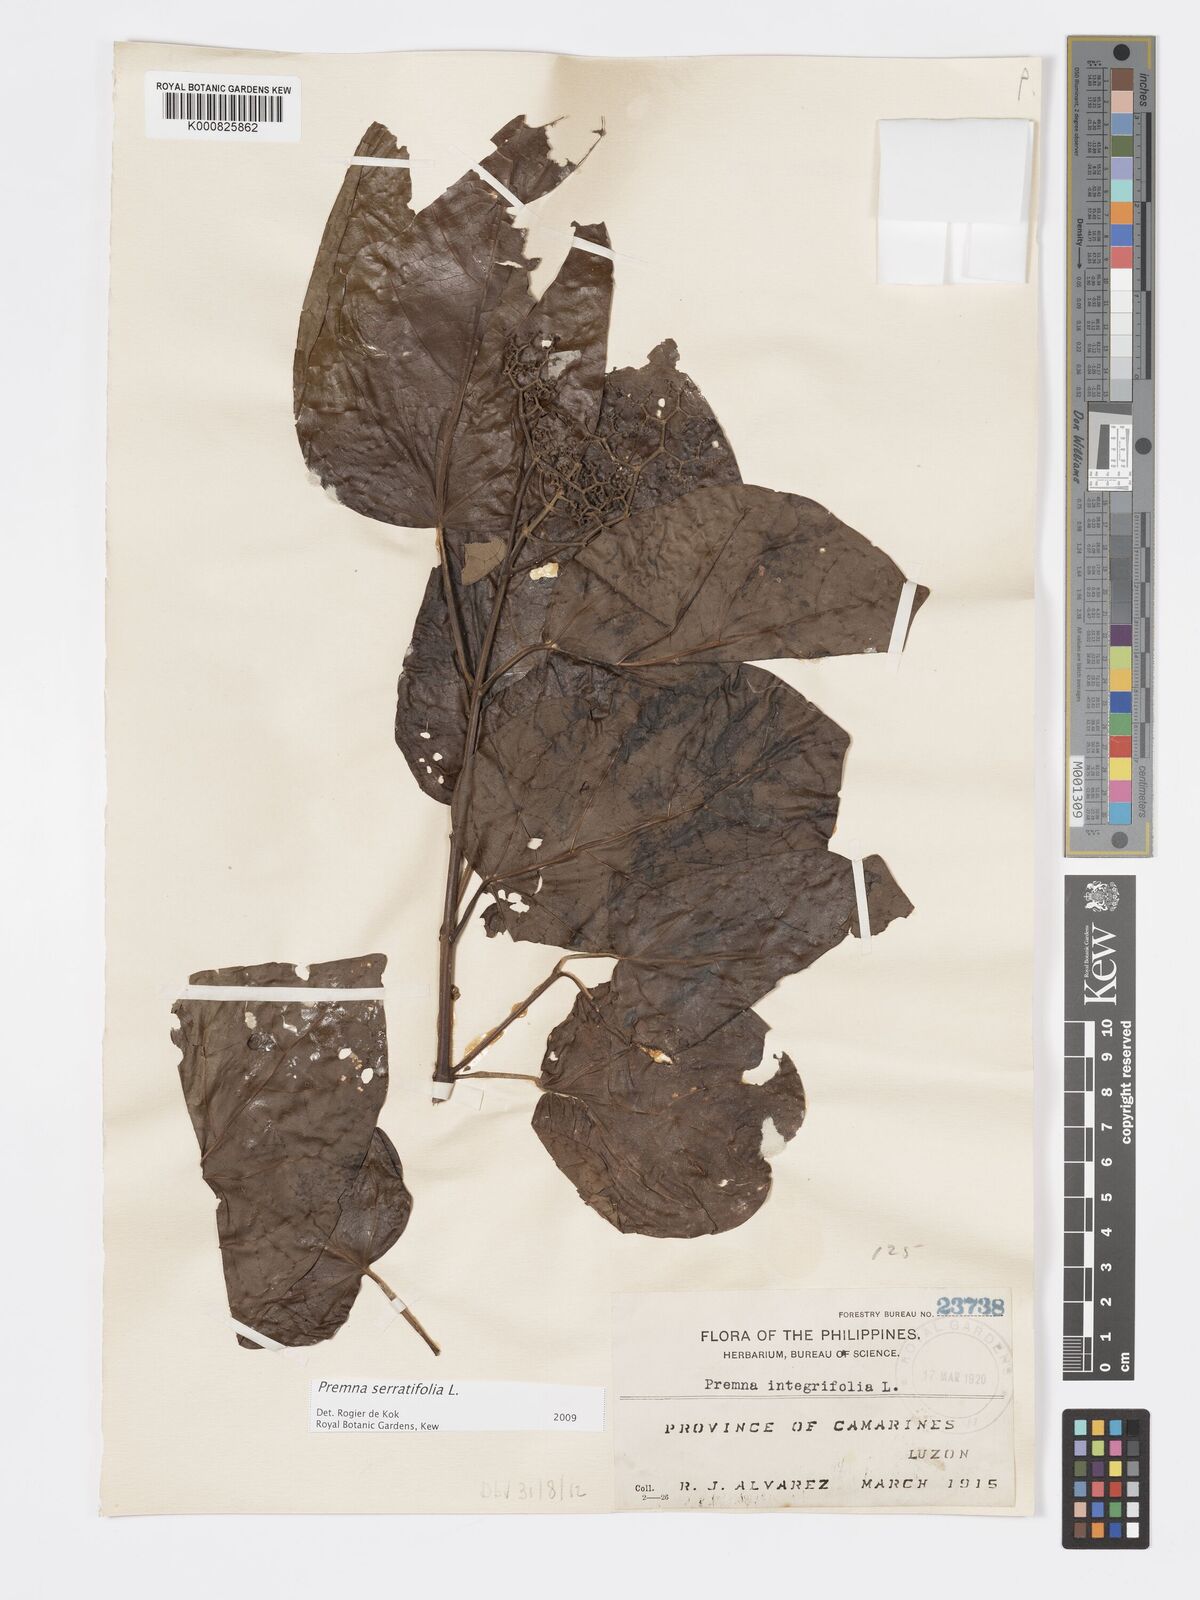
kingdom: Plantae
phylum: Tracheophyta
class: Magnoliopsida
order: Lamiales
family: Lamiaceae
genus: Premna
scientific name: Premna serratifolia
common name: Bastard guelder
